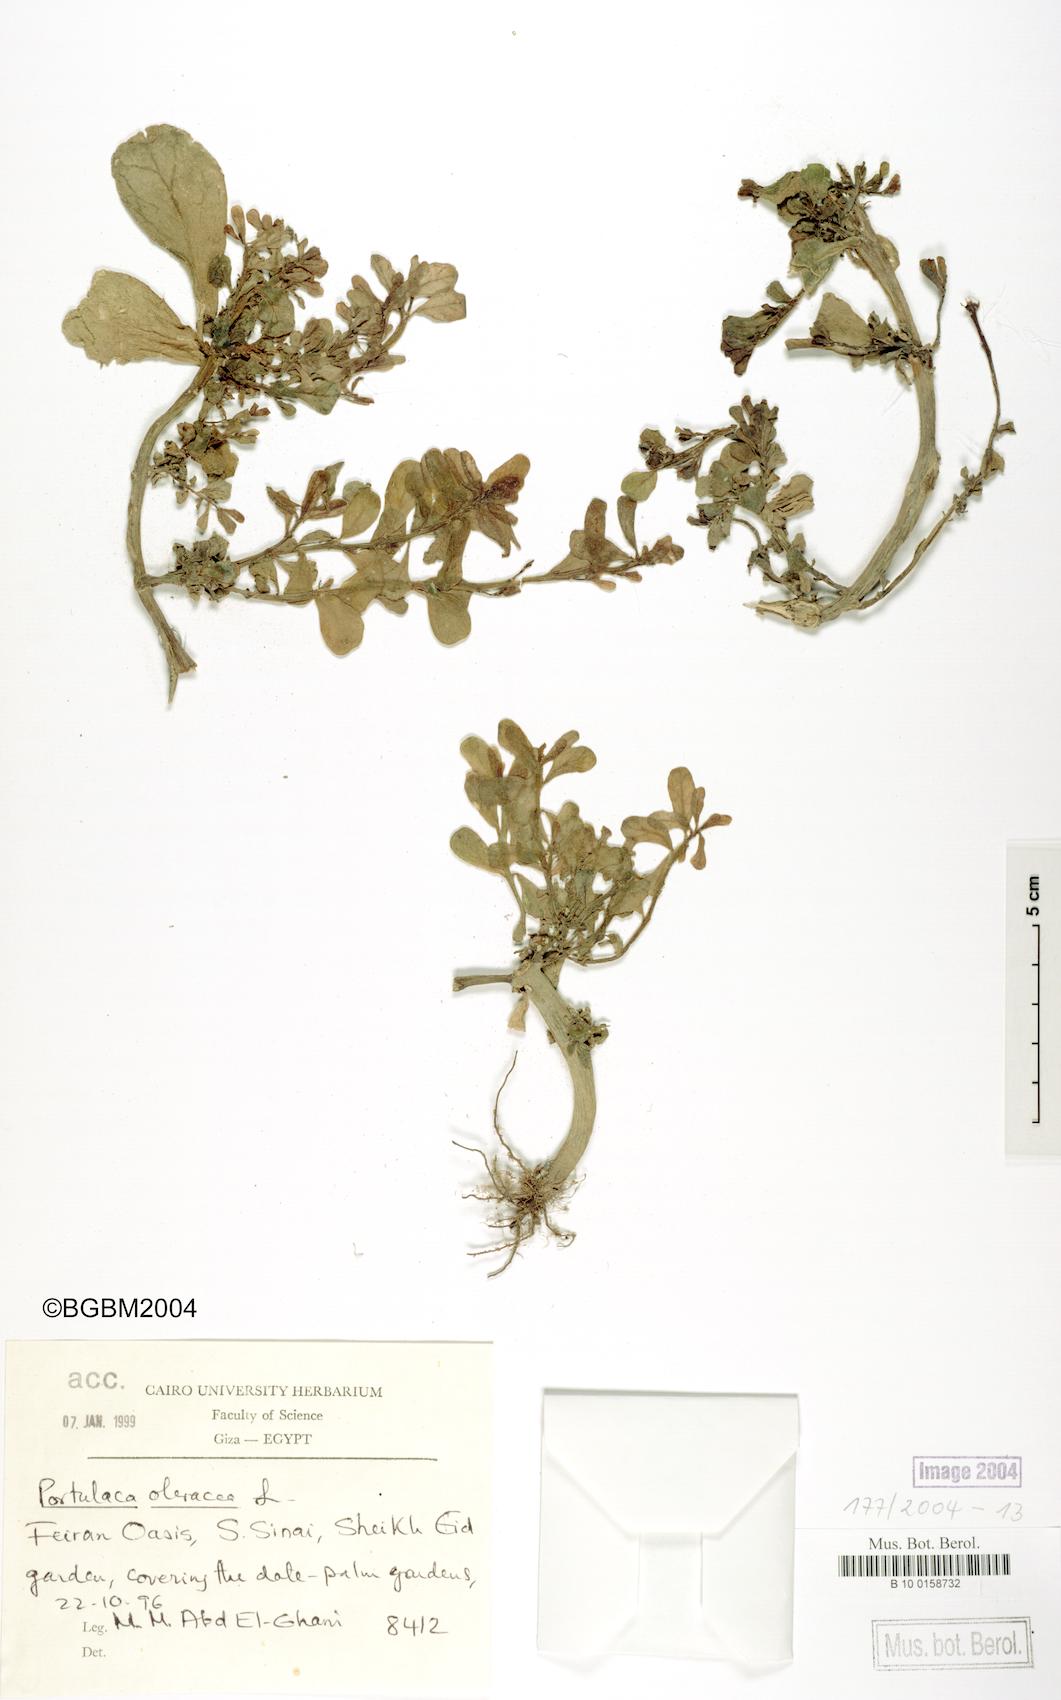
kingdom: Plantae
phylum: Tracheophyta
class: Magnoliopsida
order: Caryophyllales
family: Portulacaceae
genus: Portulaca
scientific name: Portulaca oleracea
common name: Common purslane
